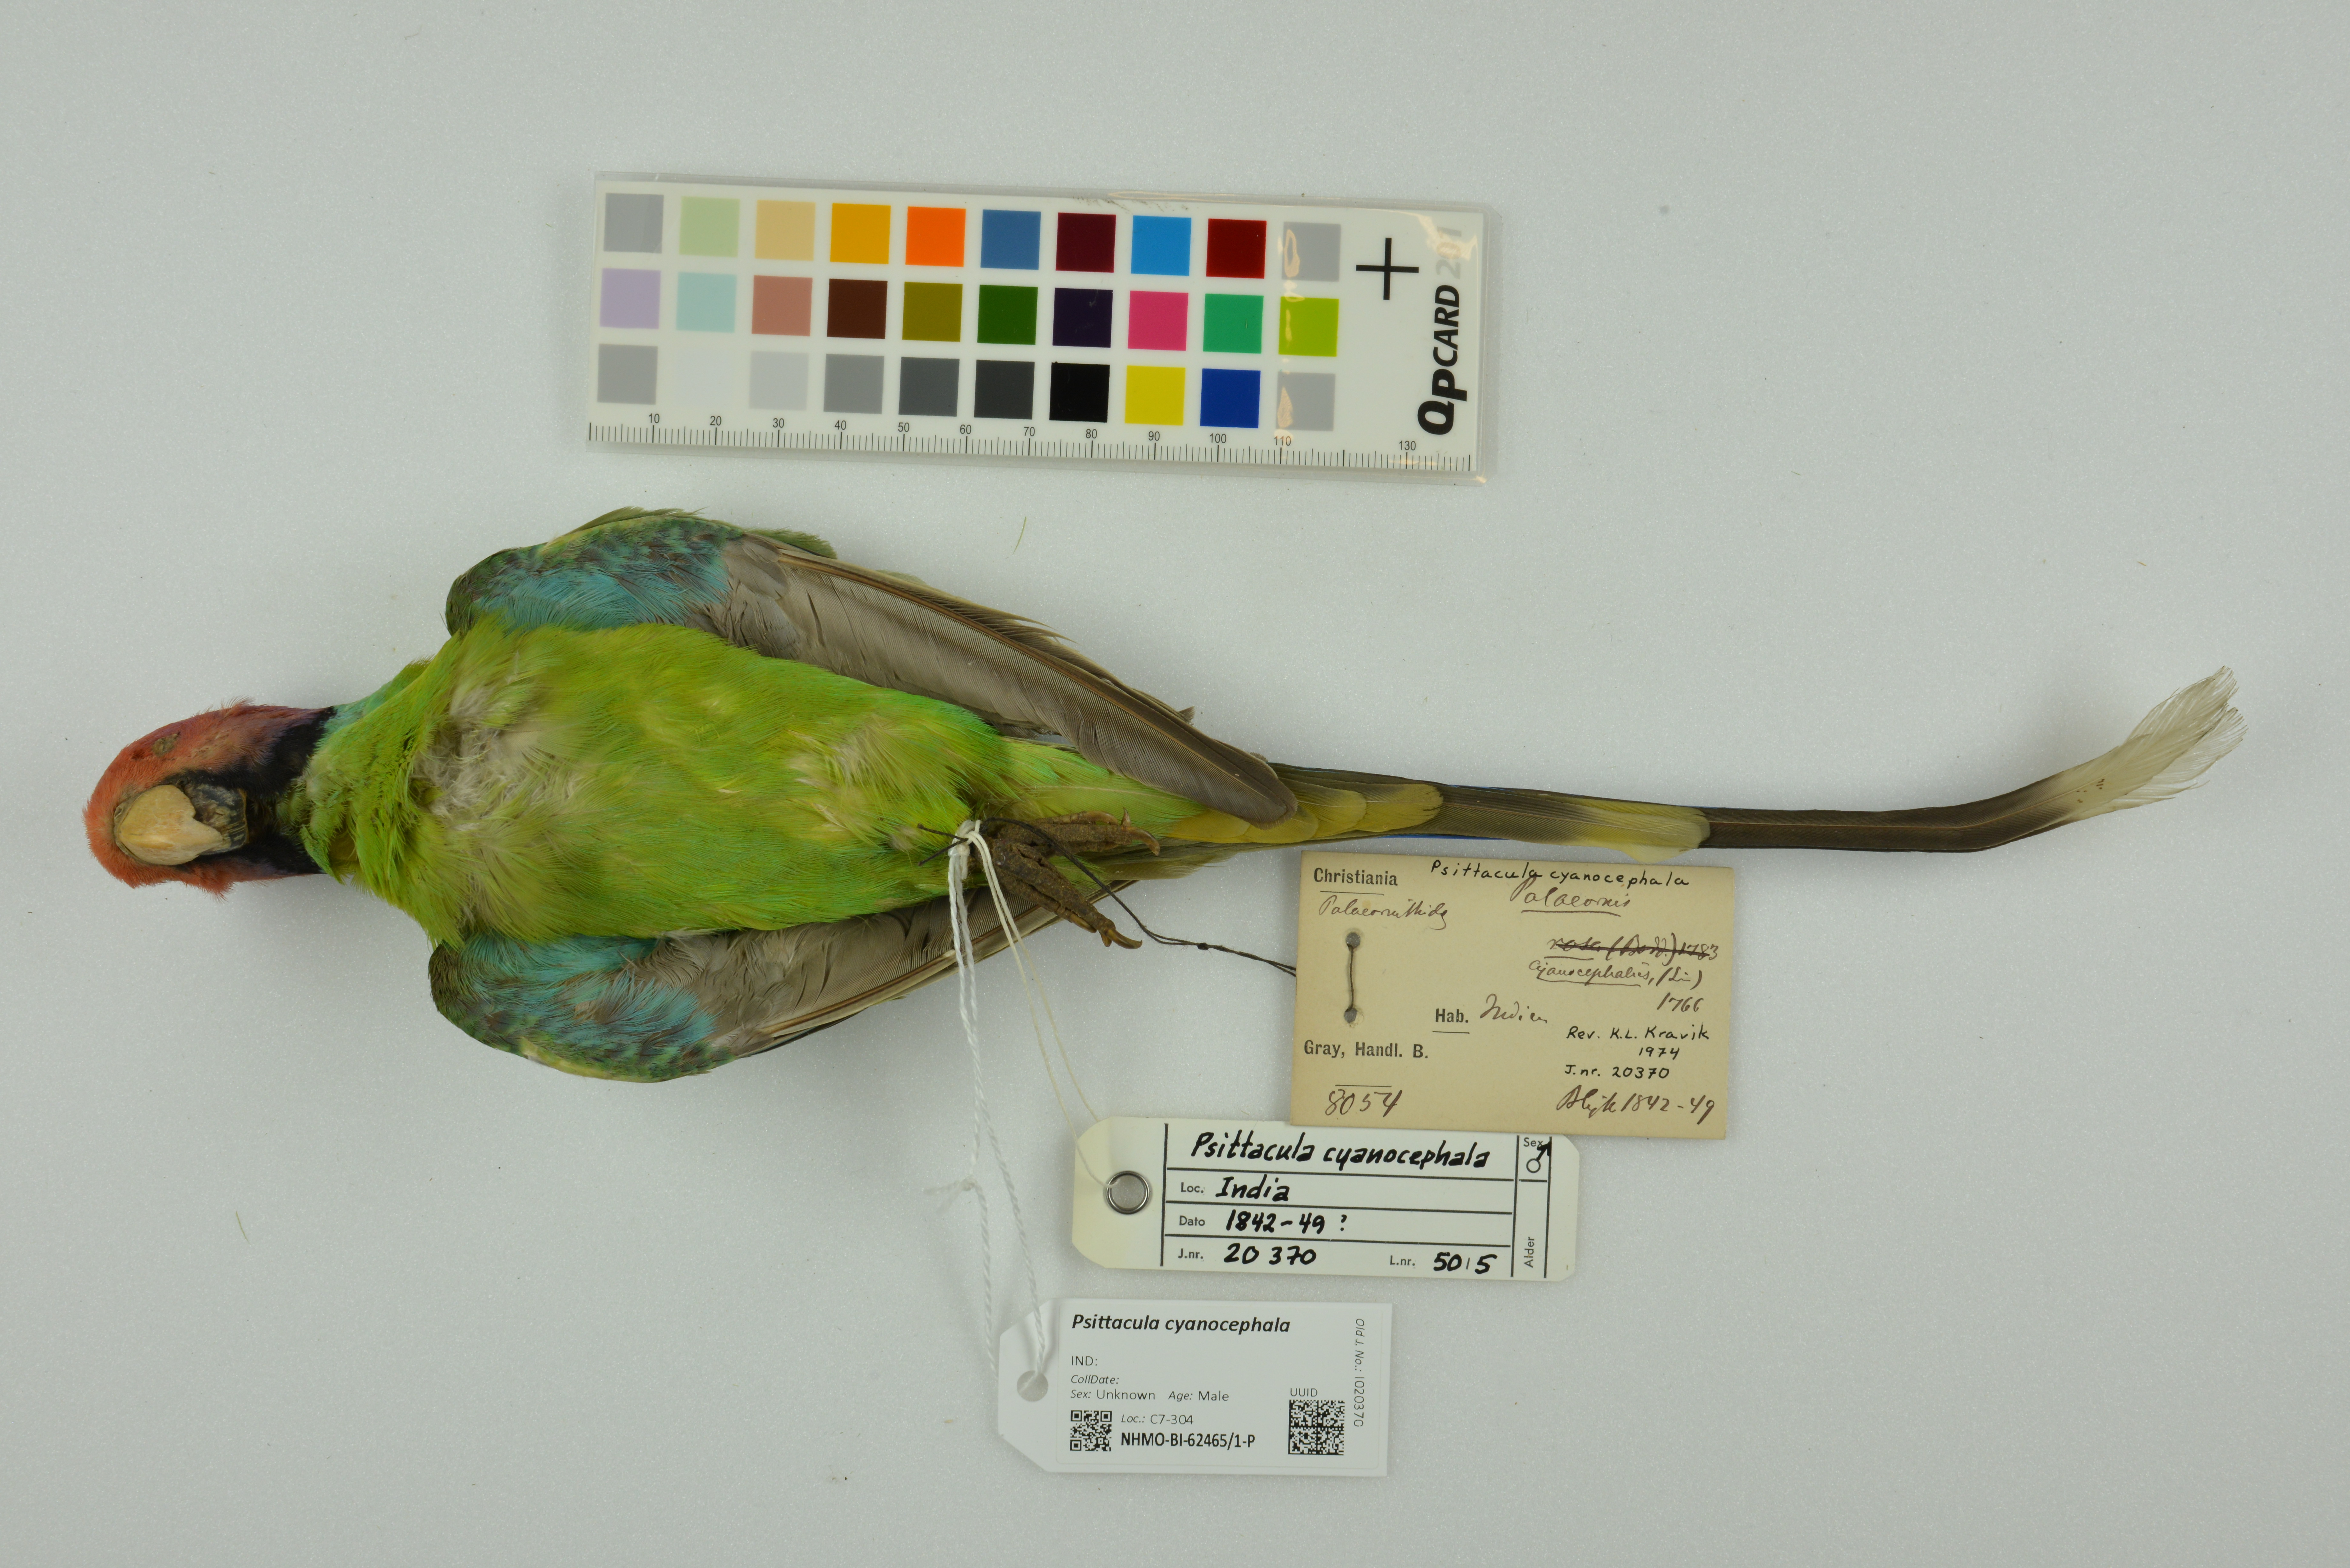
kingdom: Animalia
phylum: Chordata
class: Aves
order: Psittaciformes
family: Psittacidae
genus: Psittacula
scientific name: Psittacula cyanocephala
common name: Plum-headed parakeet
